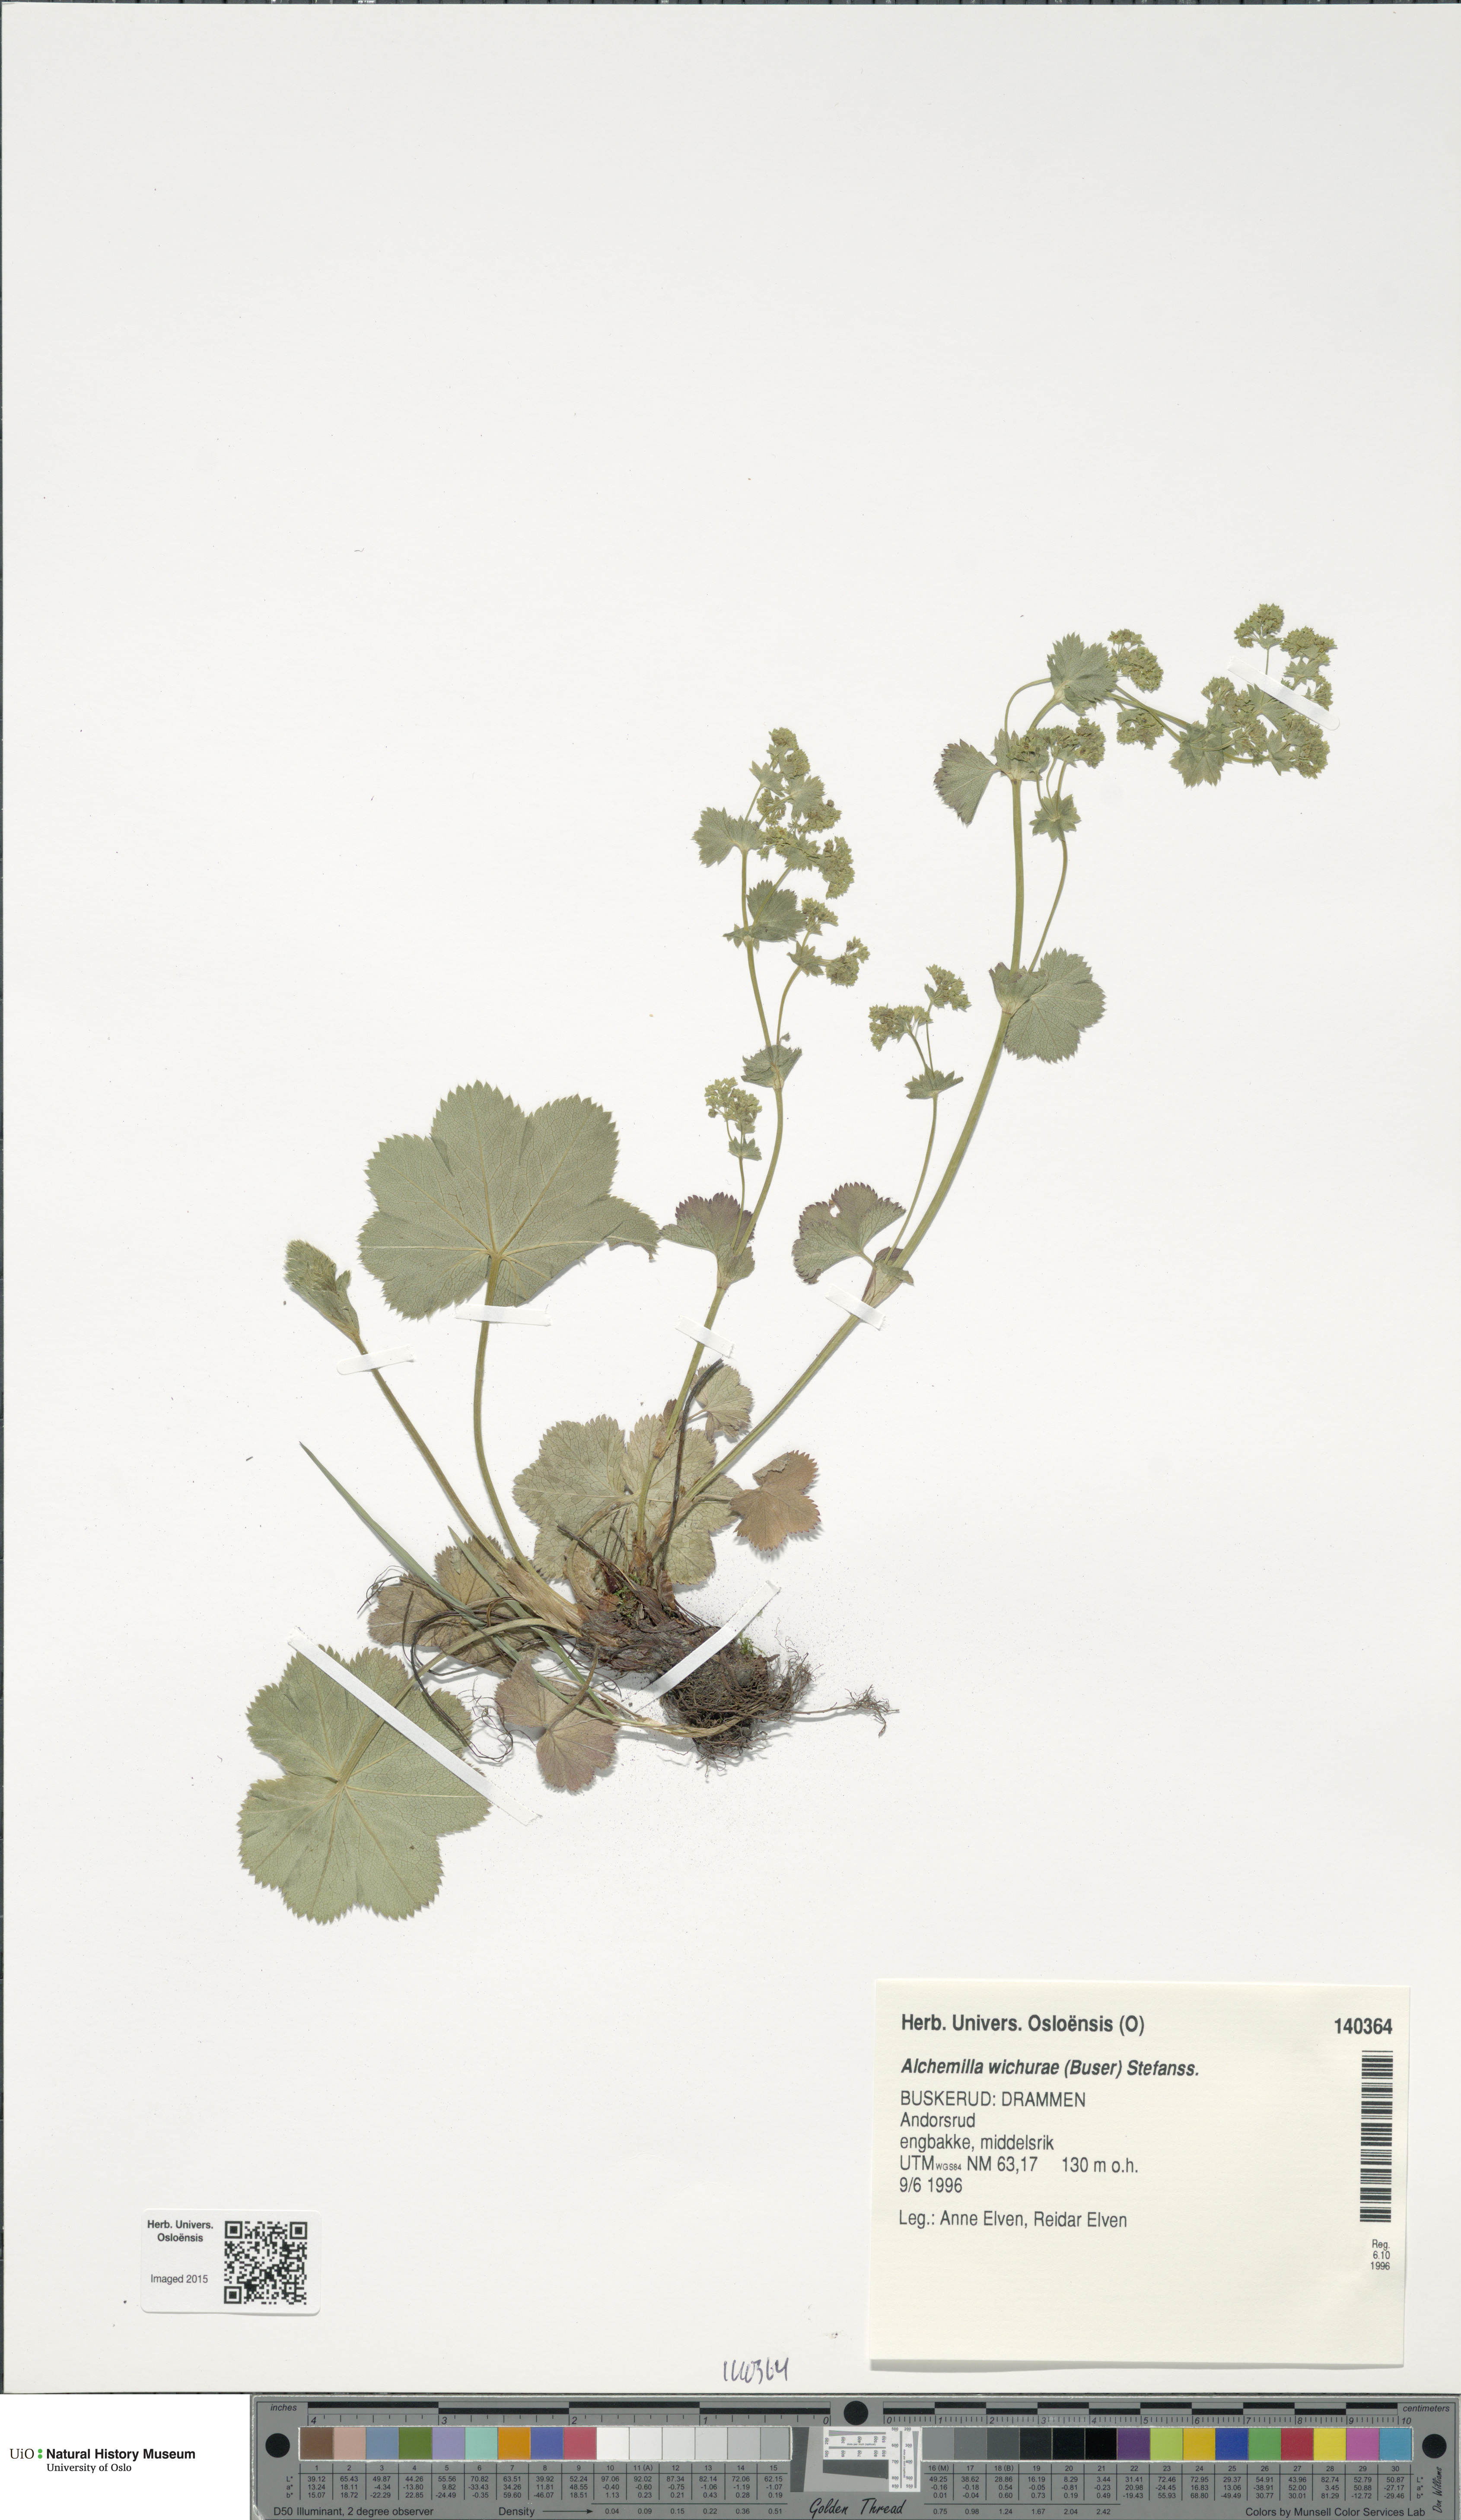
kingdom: Plantae
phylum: Tracheophyta
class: Magnoliopsida
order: Rosales
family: Rosaceae
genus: Alchemilla
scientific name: Alchemilla wichurae
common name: Rock lady's mantle
